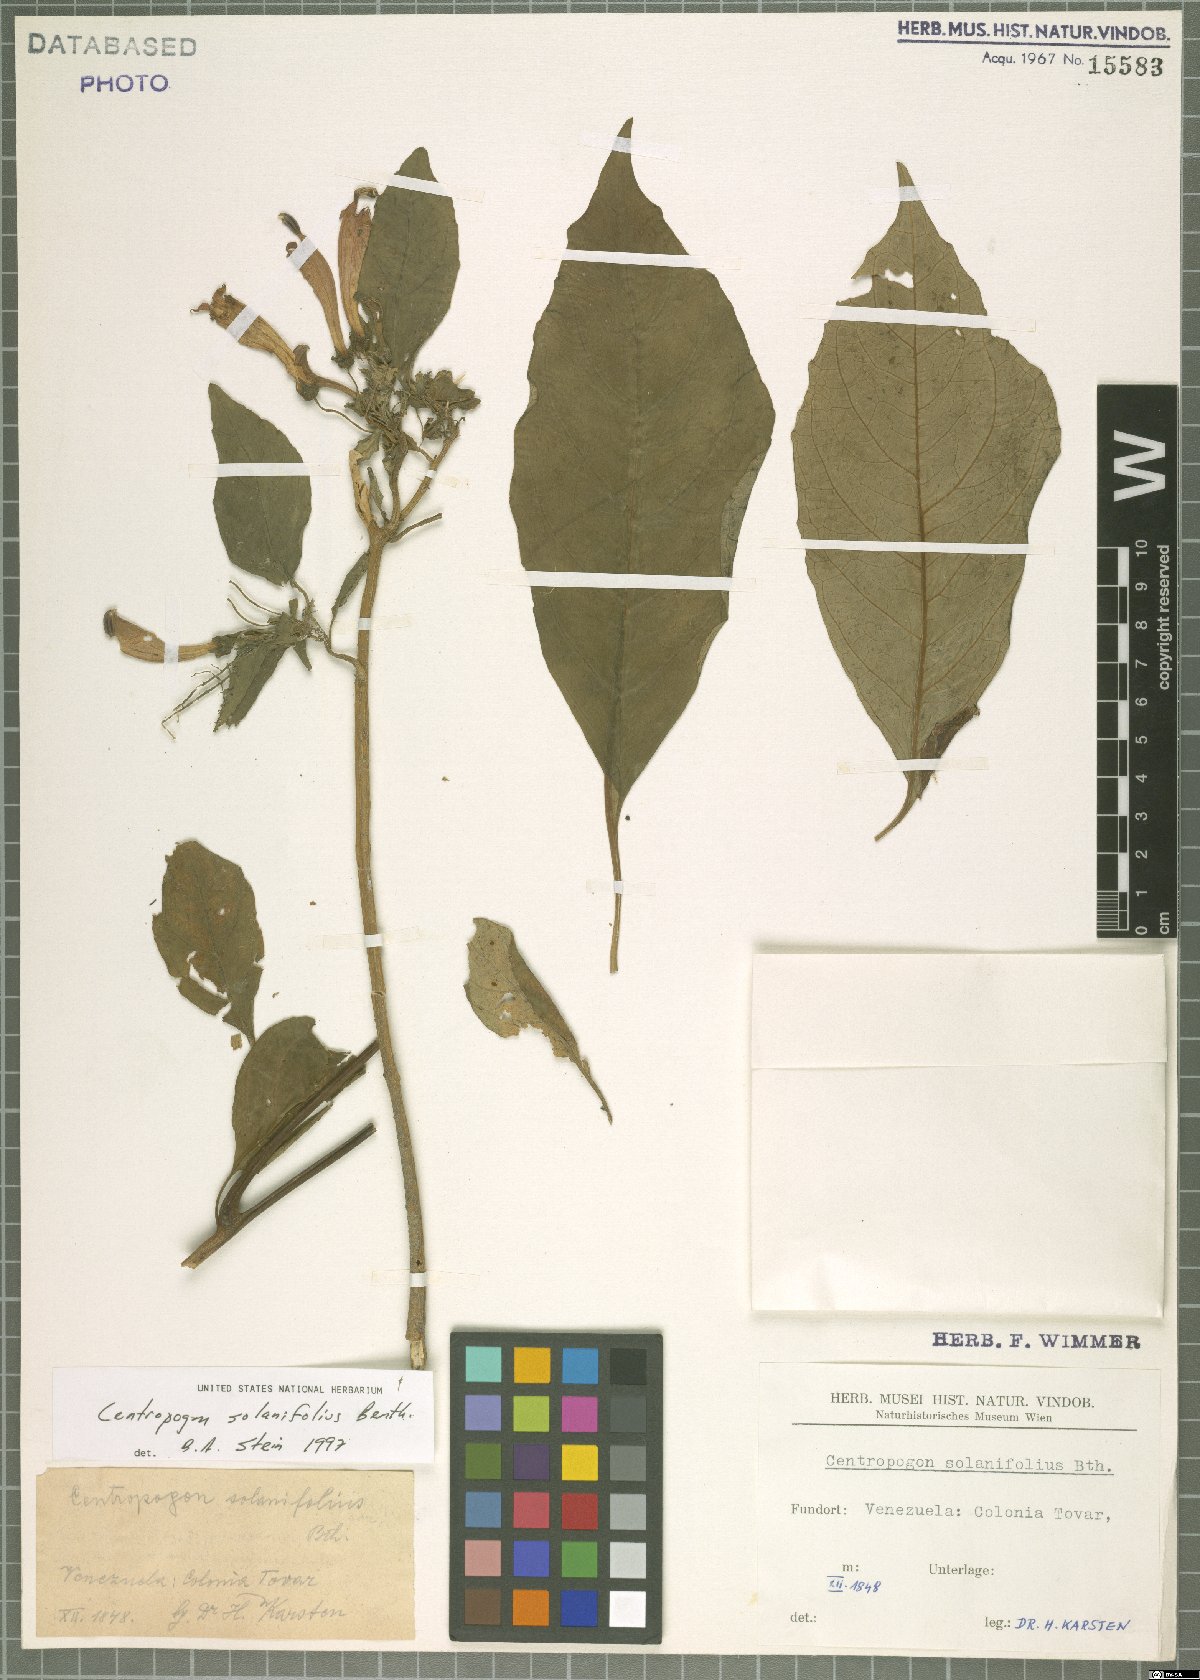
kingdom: Plantae
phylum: Tracheophyta
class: Magnoliopsida
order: Asterales
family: Campanulaceae
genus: Centropogon
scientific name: Centropogon solanifolius
